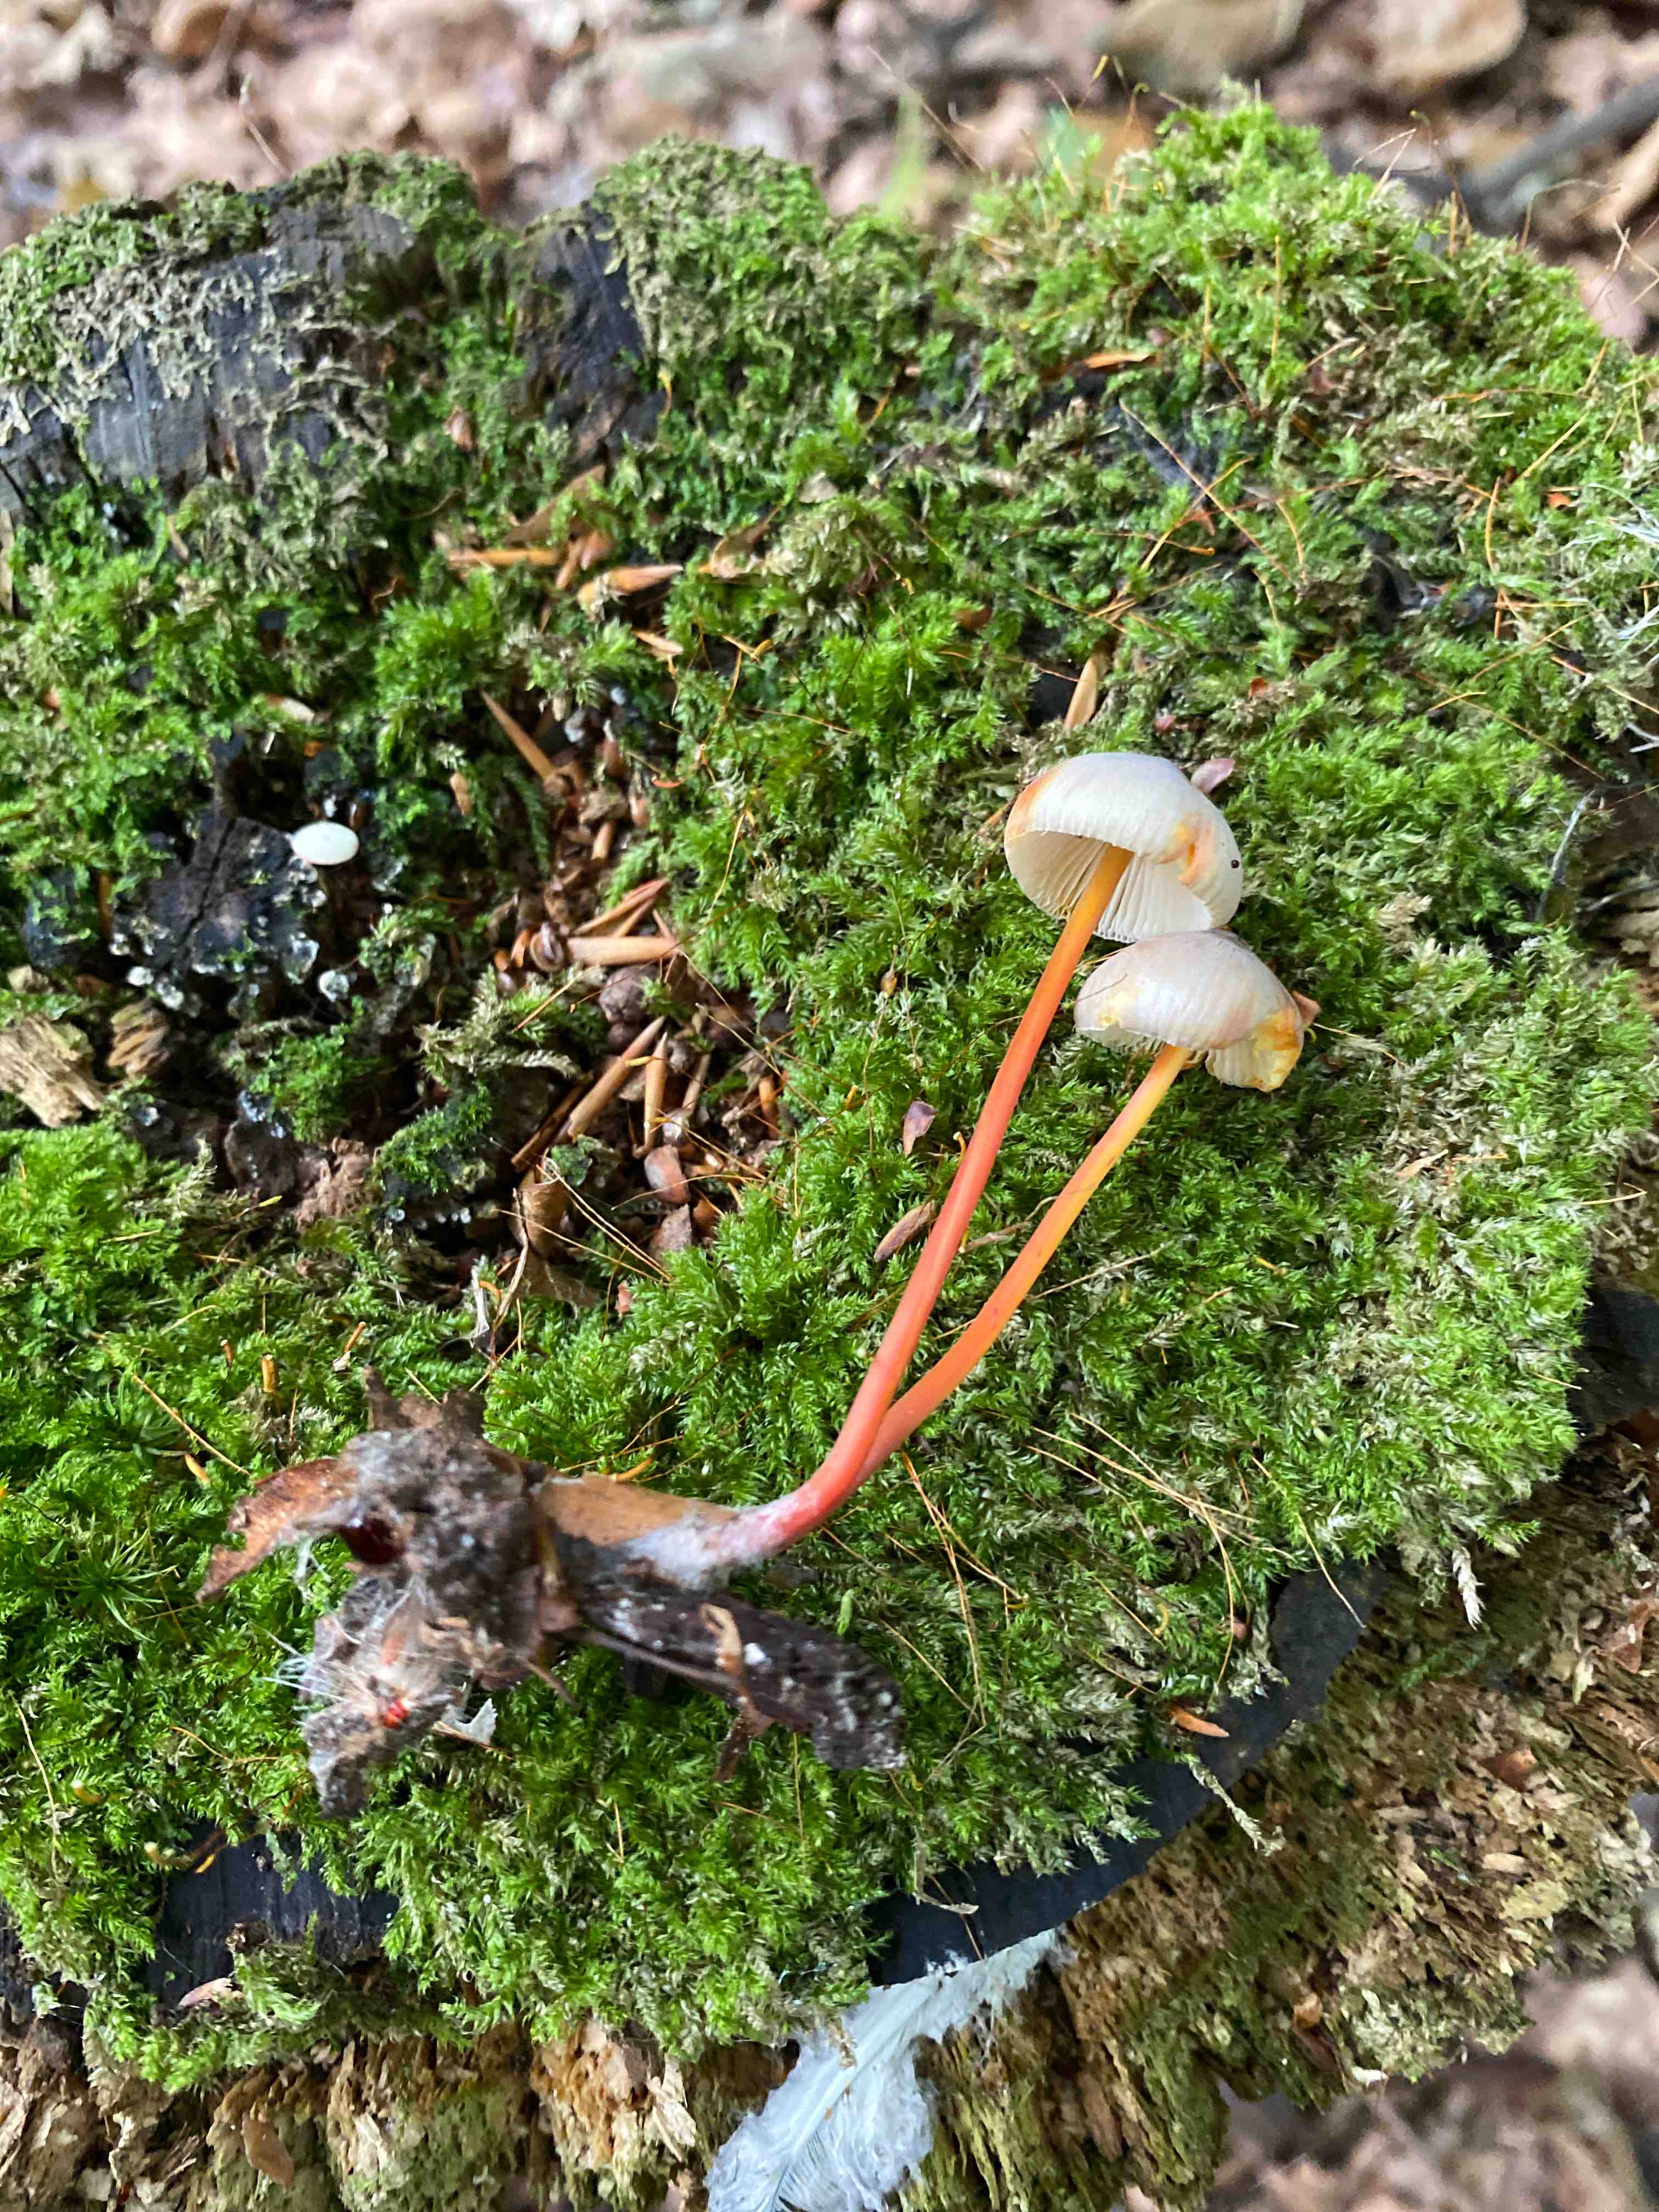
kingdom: Fungi
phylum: Basidiomycota
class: Agaricomycetes
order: Agaricales
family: Mycenaceae
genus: Mycena
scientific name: Mycena crocata
